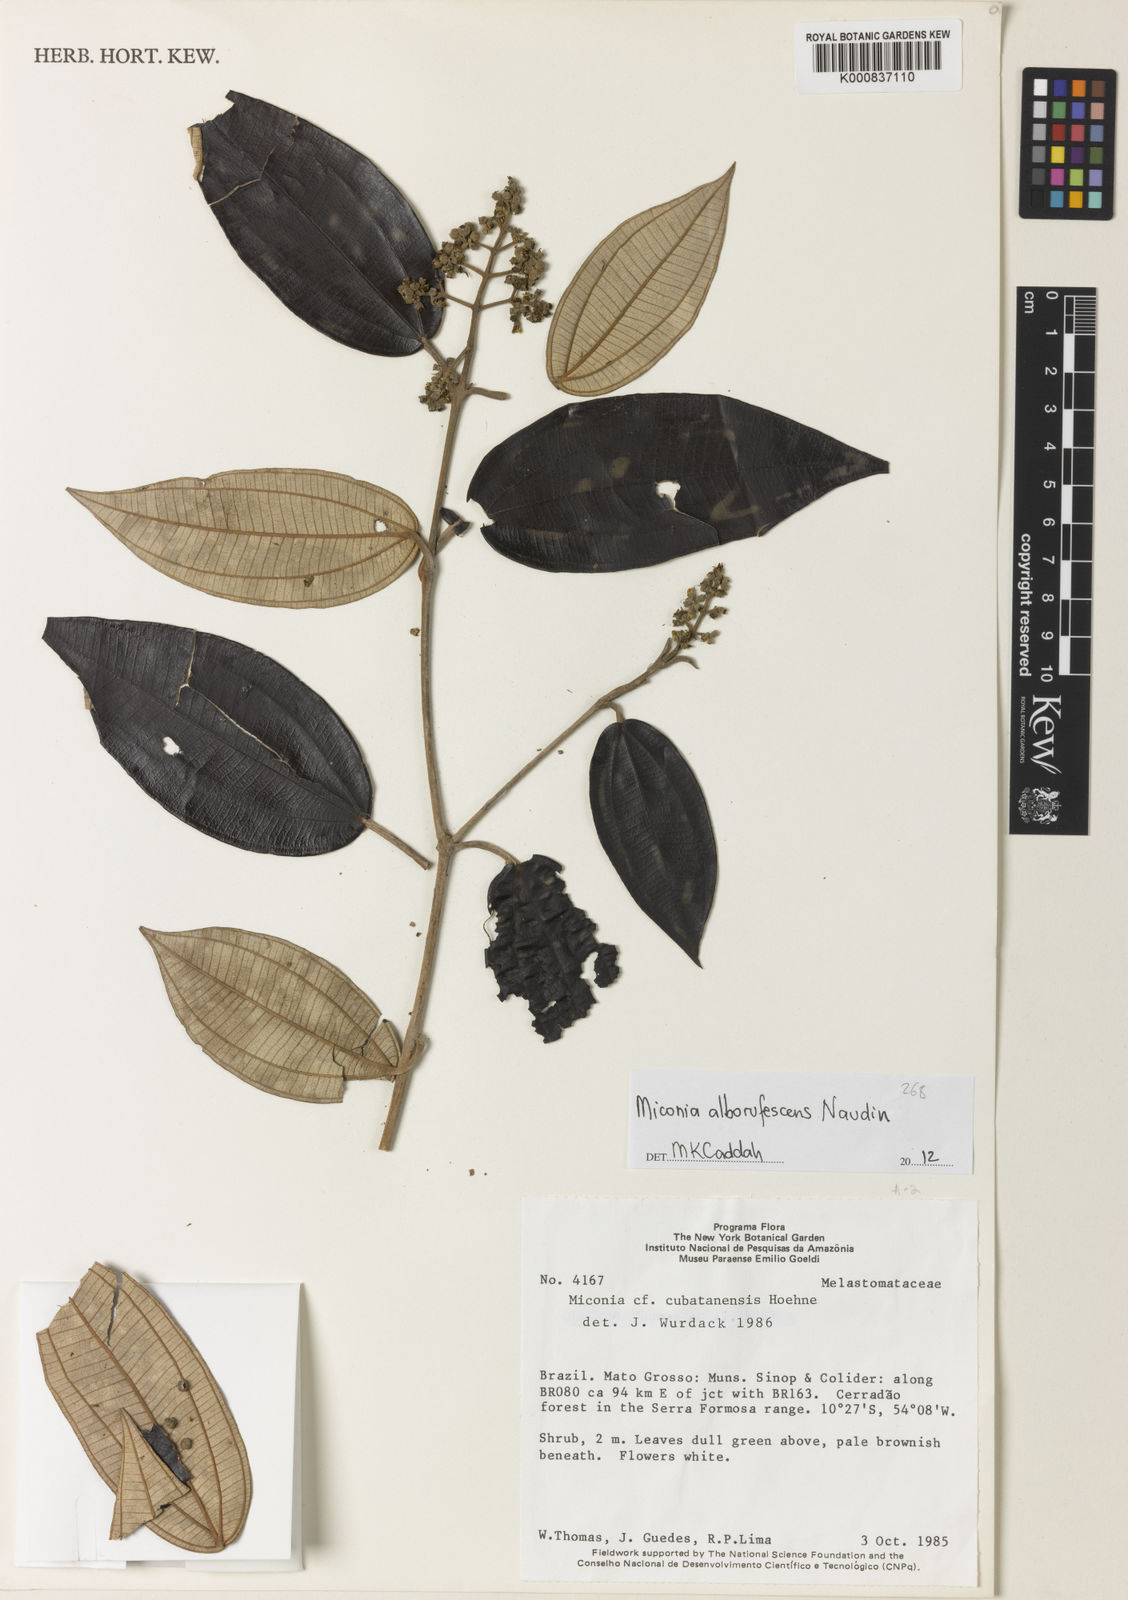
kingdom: Plantae
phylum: Tracheophyta
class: Magnoliopsida
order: Myrtales
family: Melastomataceae
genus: Miconia
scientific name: Miconia alborufescens
